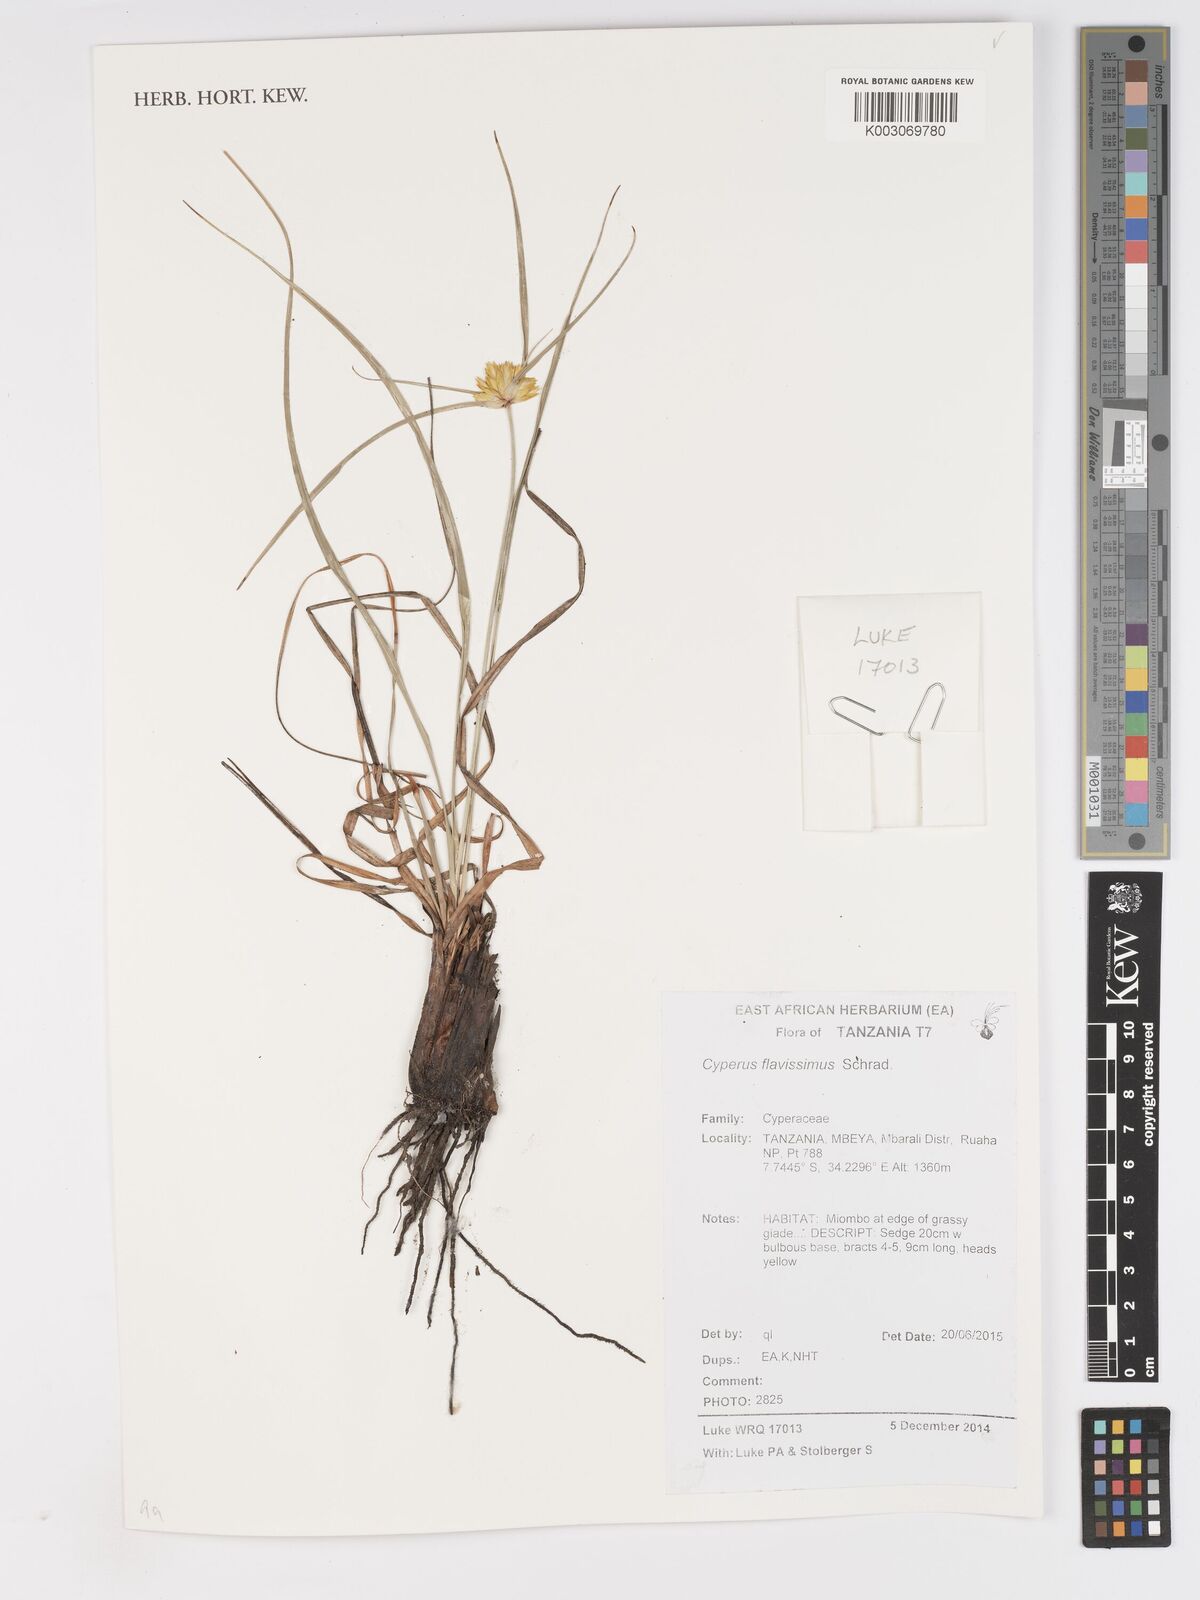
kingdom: Plantae
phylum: Tracheophyta
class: Liliopsida
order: Poales
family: Cyperaceae
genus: Cyperus
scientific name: Cyperus niveus
